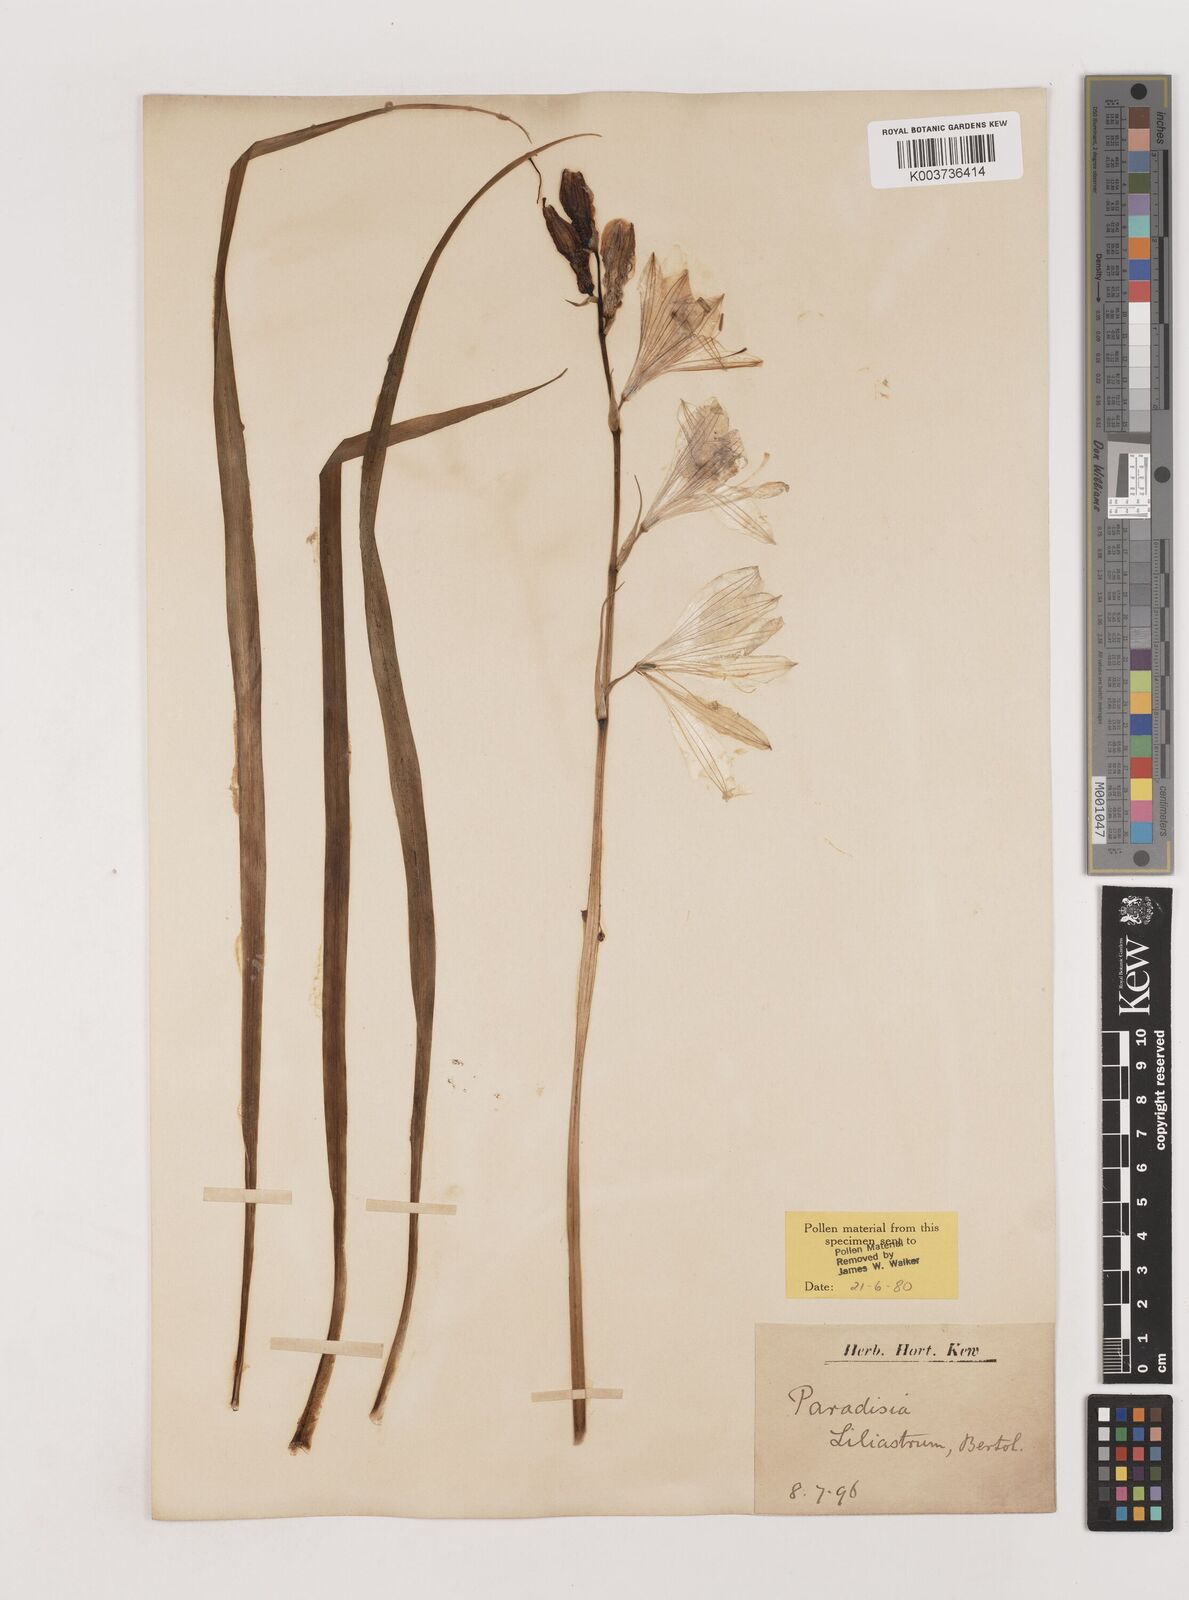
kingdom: Plantae
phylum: Tracheophyta
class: Liliopsida
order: Asparagales
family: Asparagaceae
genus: Paradisea
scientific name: Paradisea liliastrum
